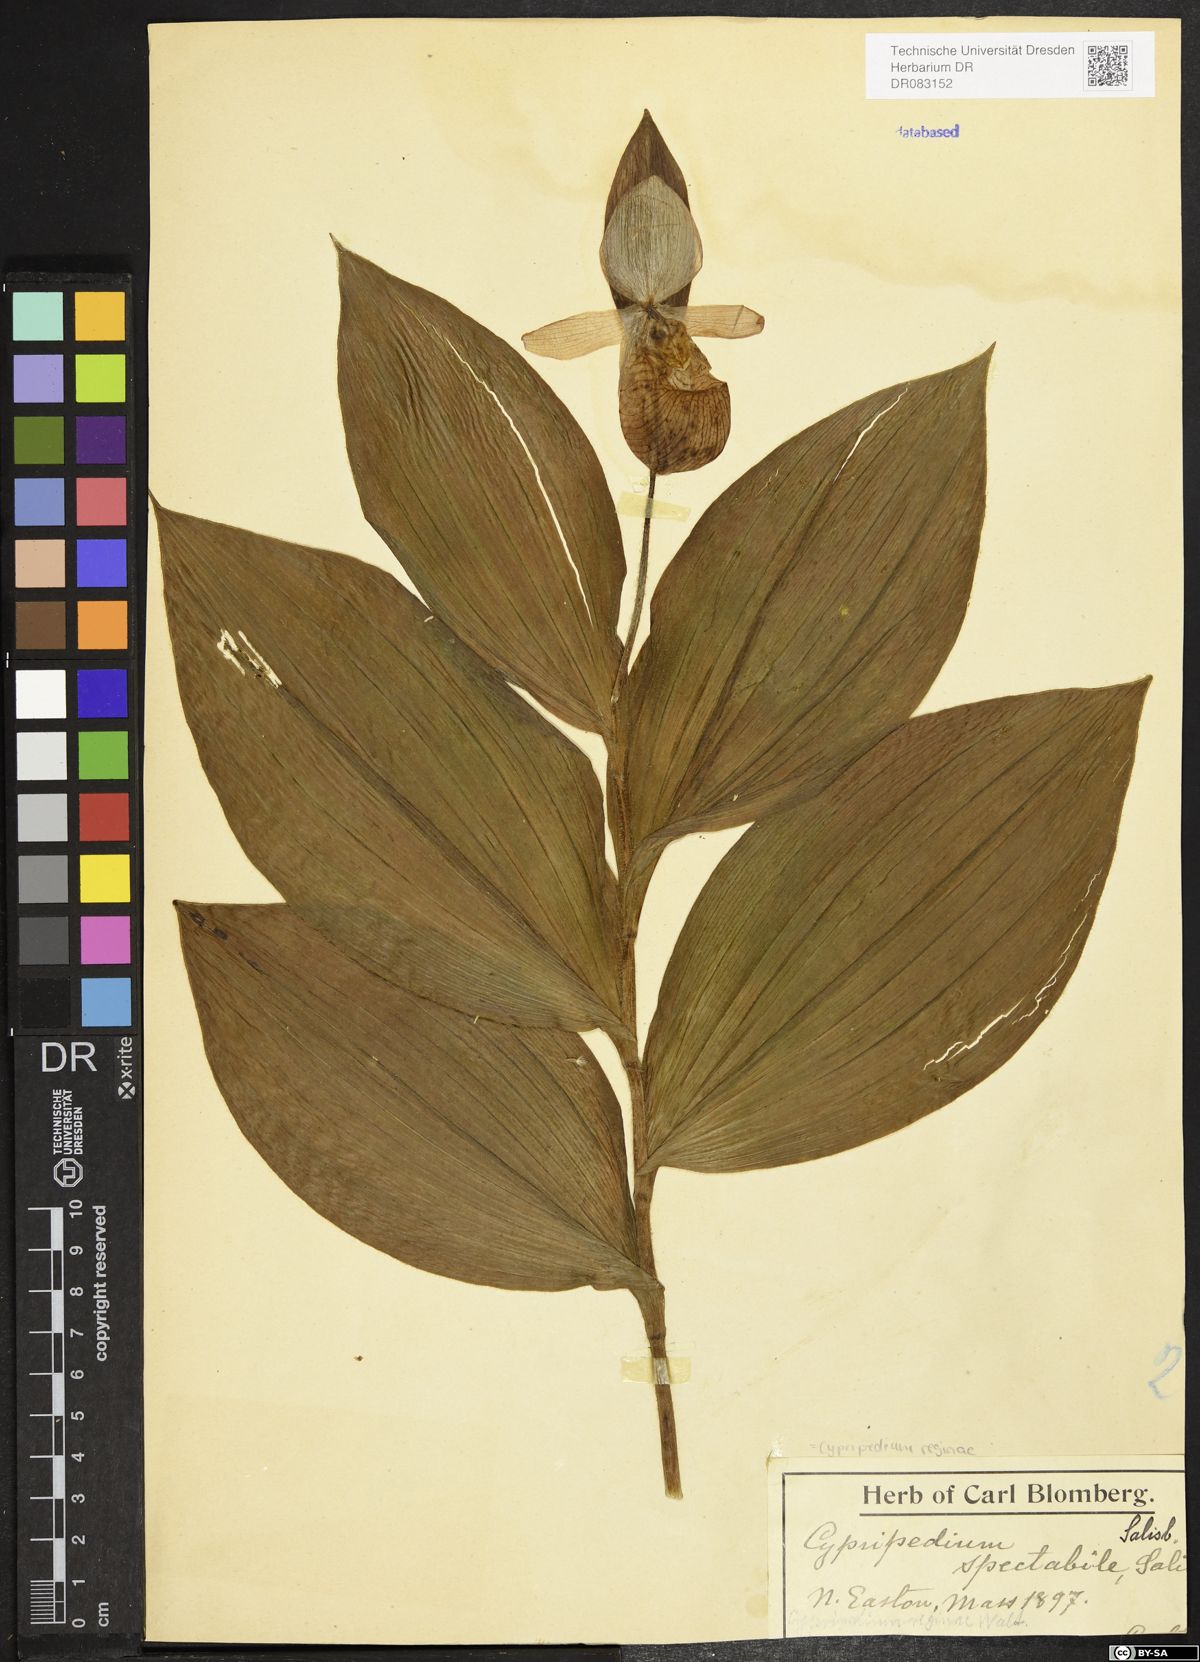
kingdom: Plantae
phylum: Tracheophyta
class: Liliopsida
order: Asparagales
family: Orchidaceae
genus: Cypripedium
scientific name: Cypripedium reginae
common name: Queen lady's-slipper
